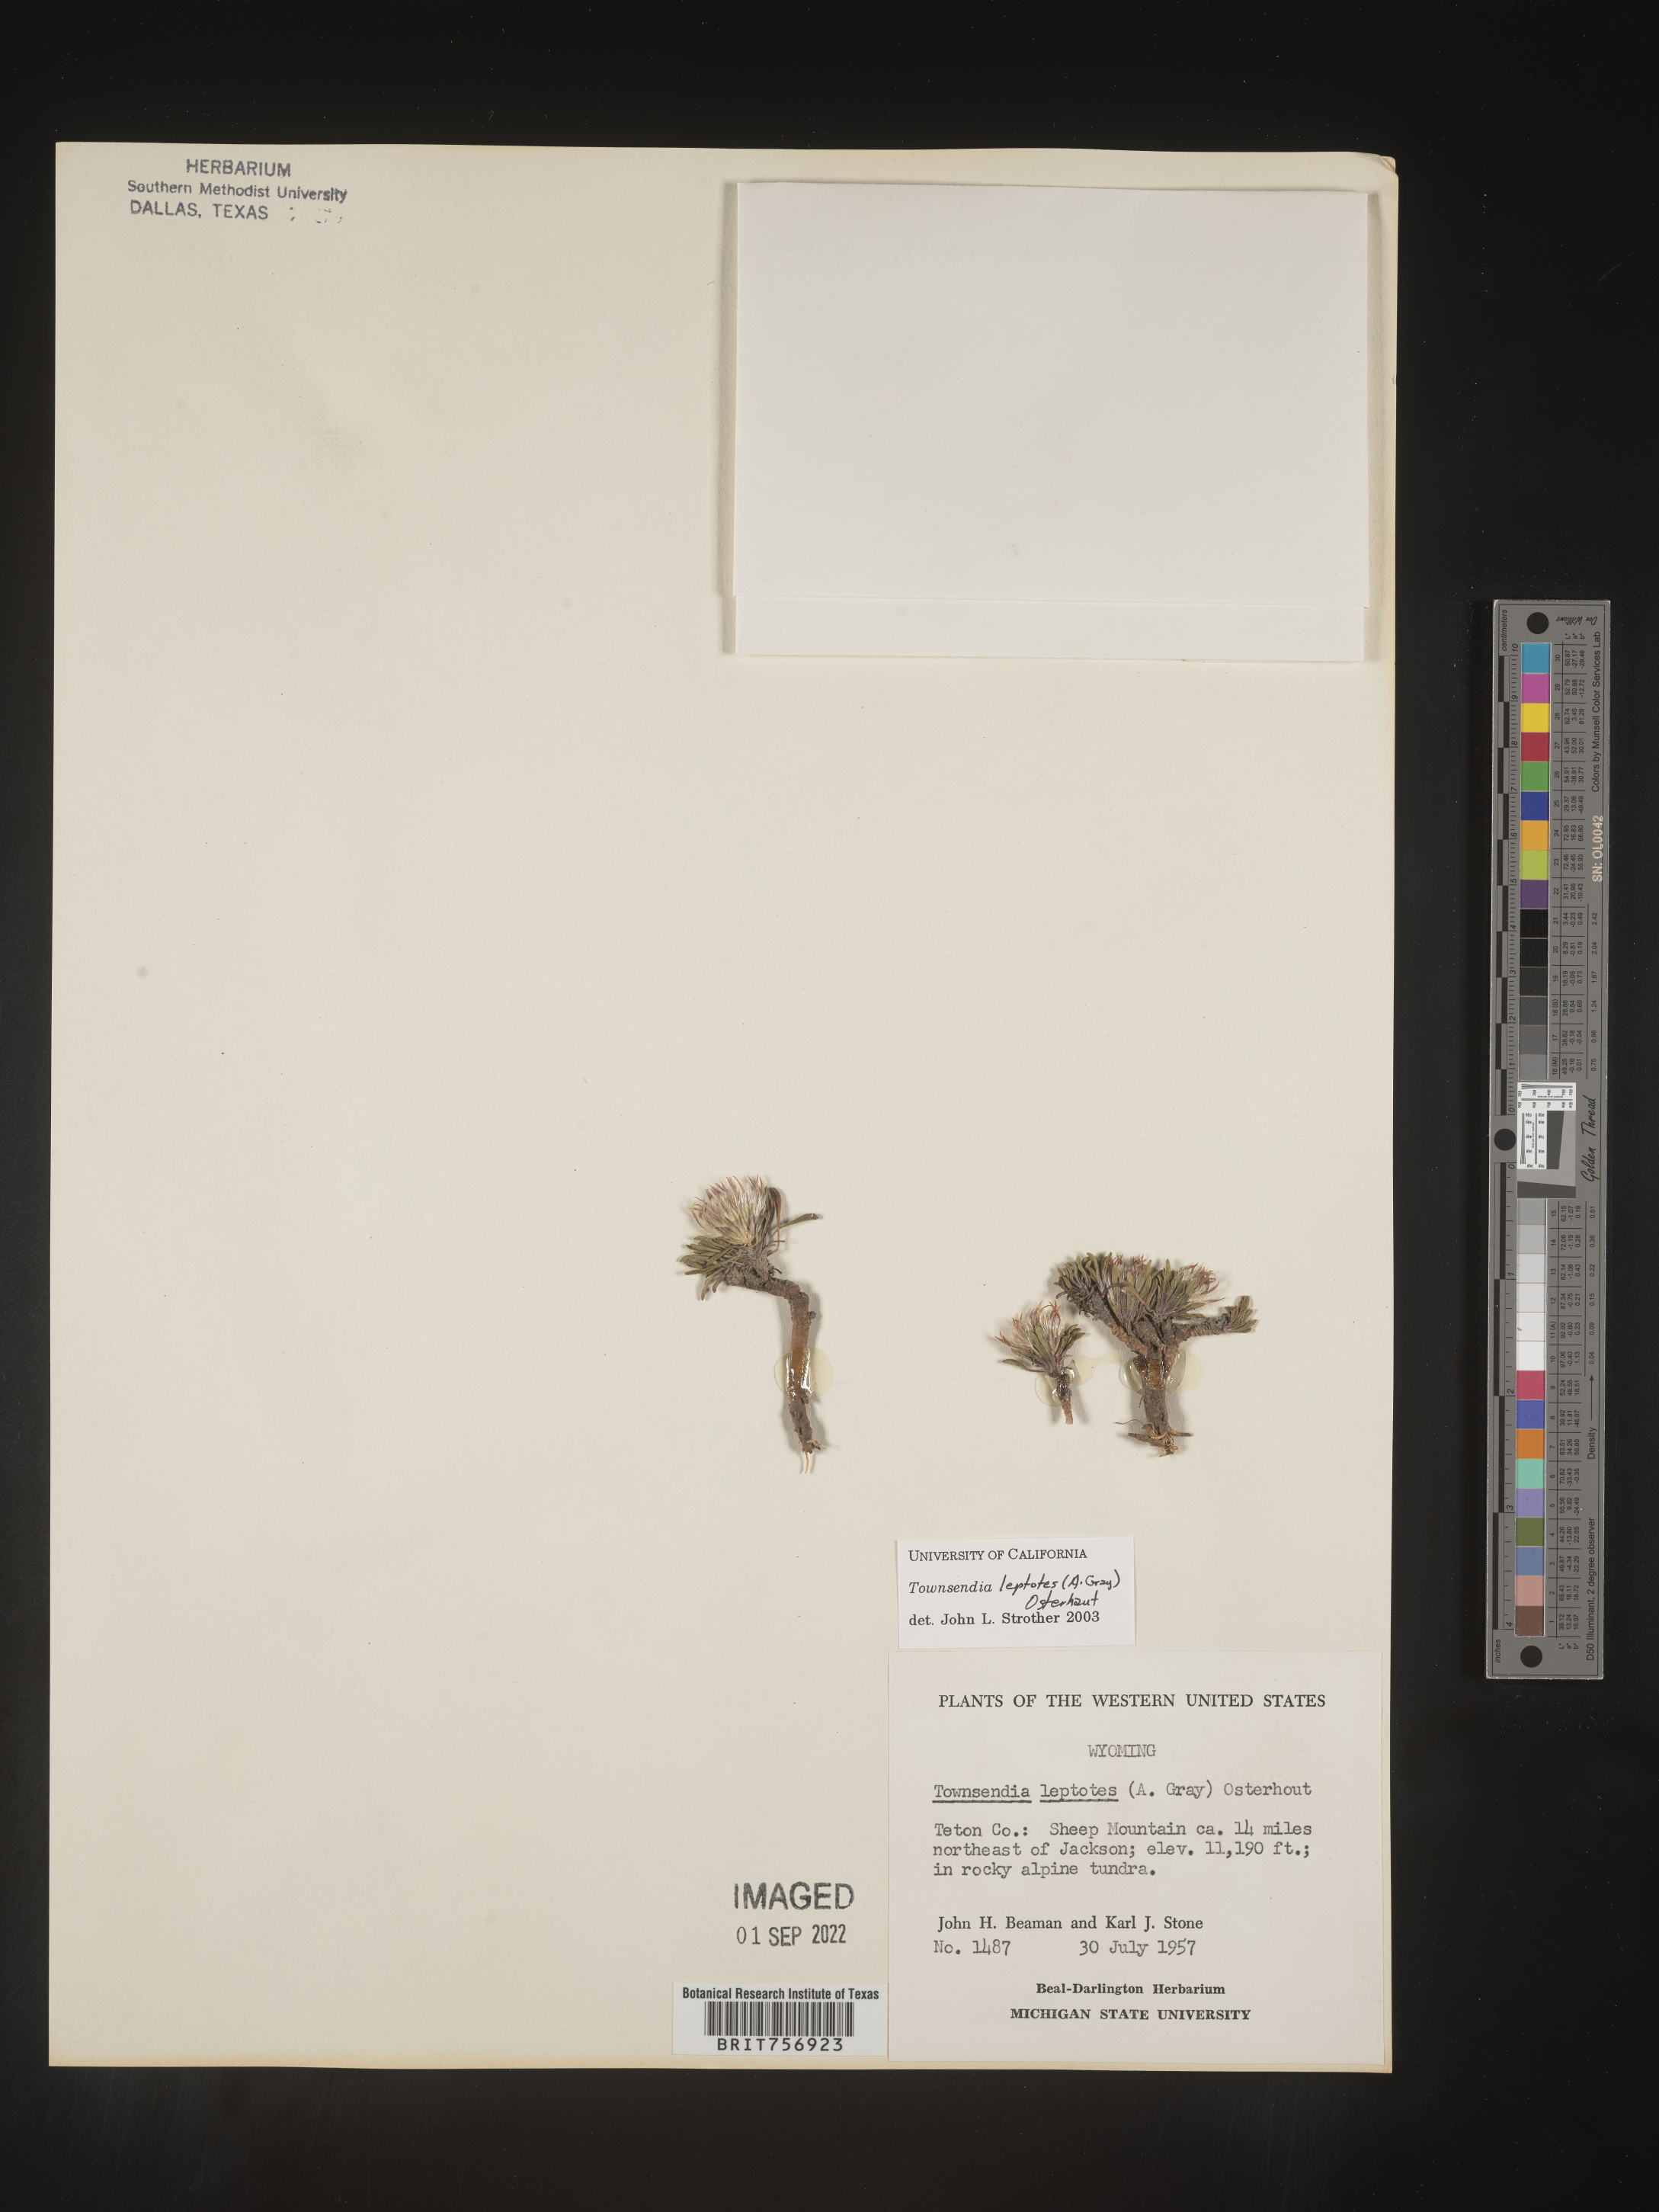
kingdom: Plantae
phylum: Tracheophyta
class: Magnoliopsida
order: Asterales
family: Asteraceae
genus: Townsendia
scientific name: Townsendia leptotes
